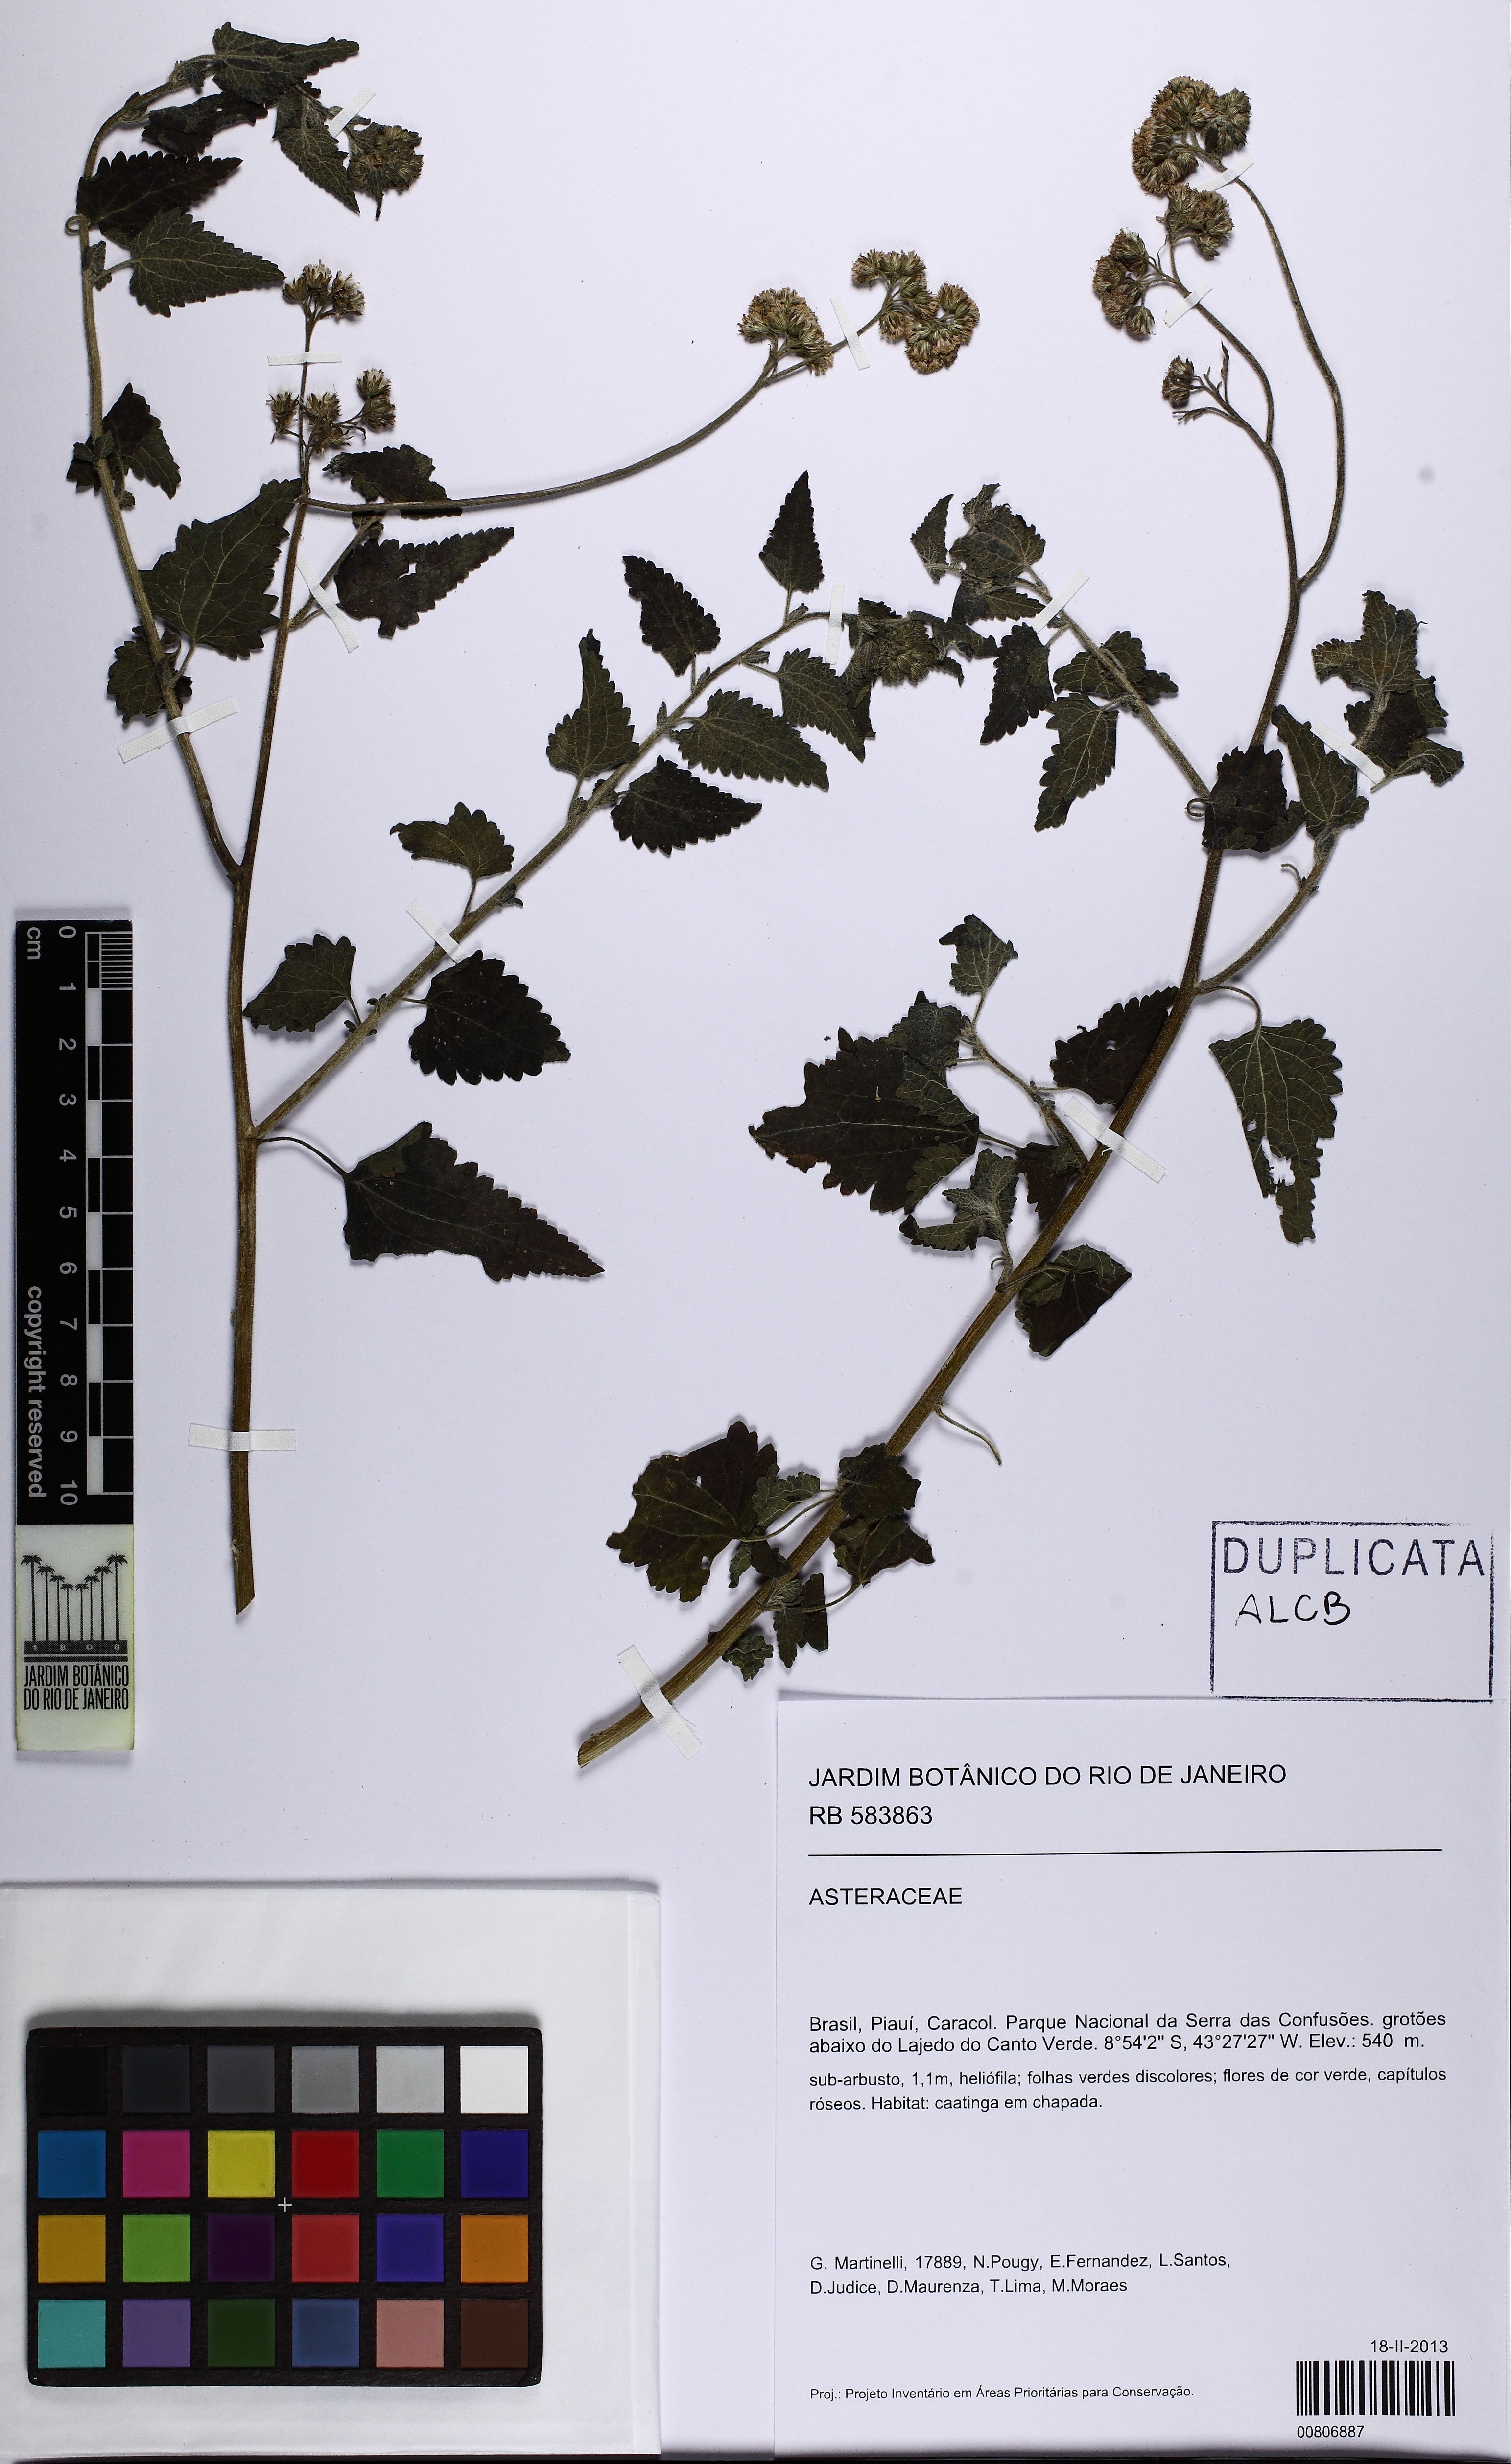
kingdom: Plantae
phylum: Tracheophyta
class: Magnoliopsida
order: Asterales
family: Asteraceae
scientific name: Asteraceae
